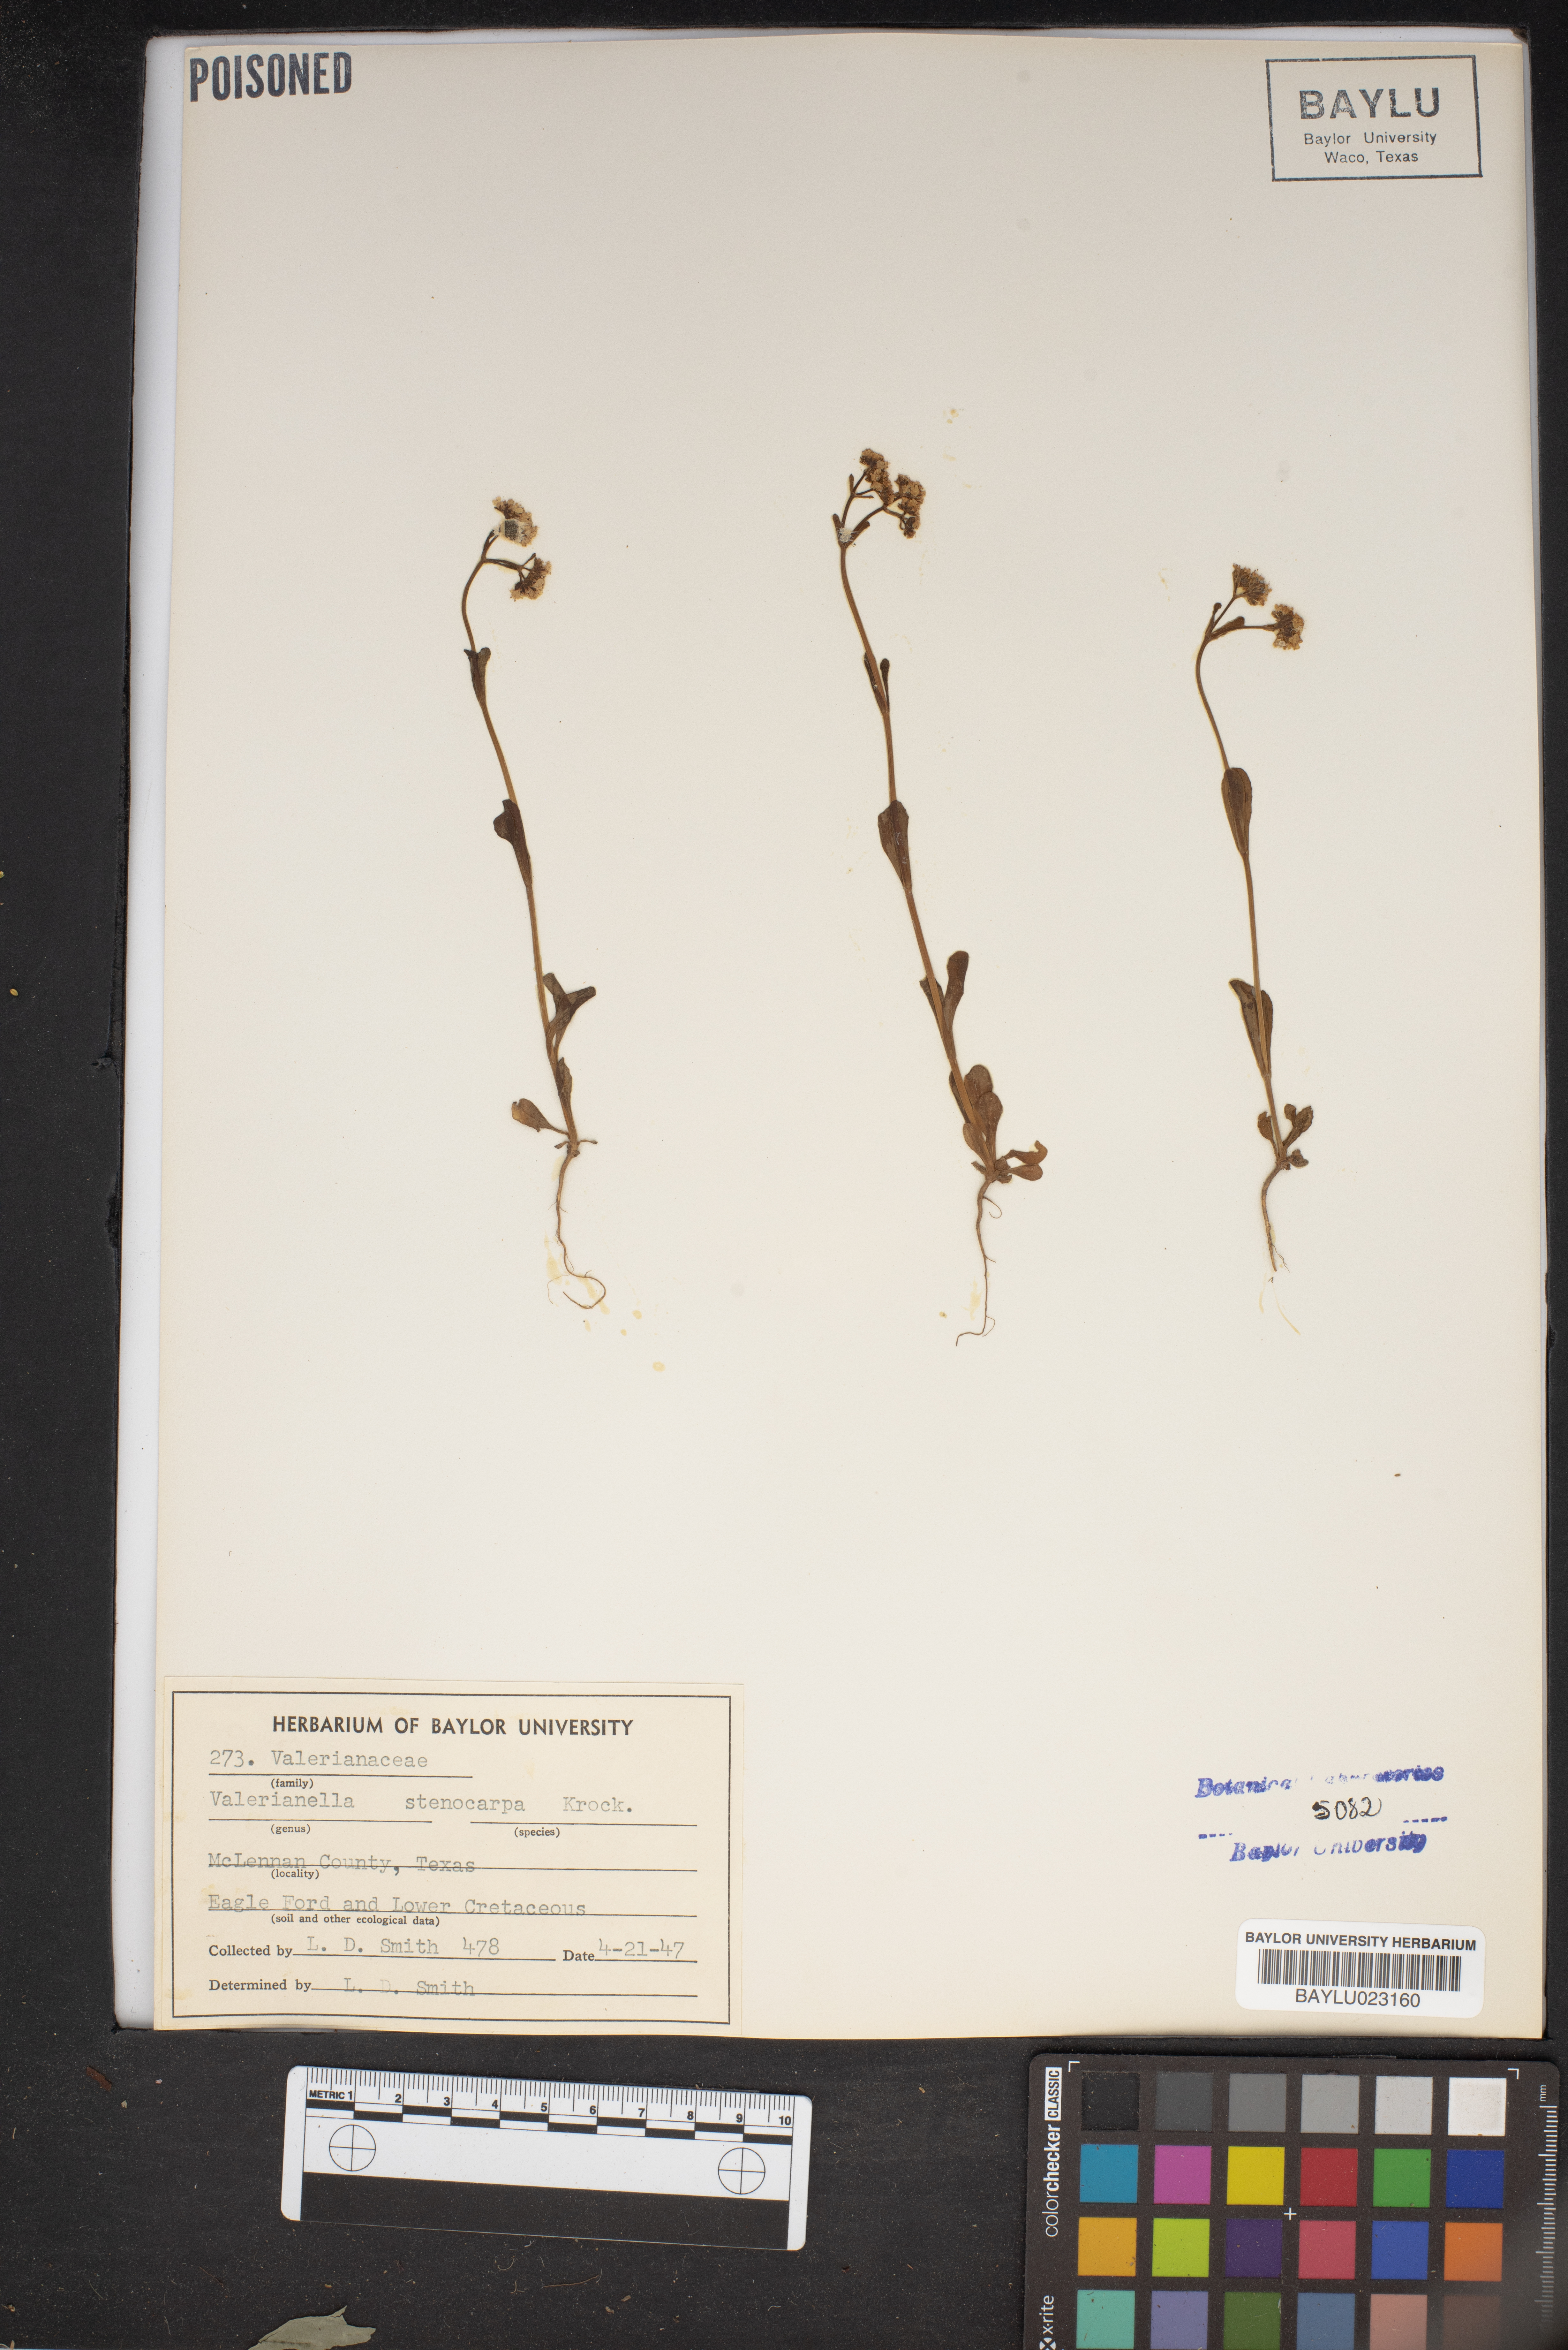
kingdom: Plantae
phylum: Tracheophyta
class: Magnoliopsida
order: Dipsacales
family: Caprifoliaceae
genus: Valerianella
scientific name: Valerianella stenocarpa
